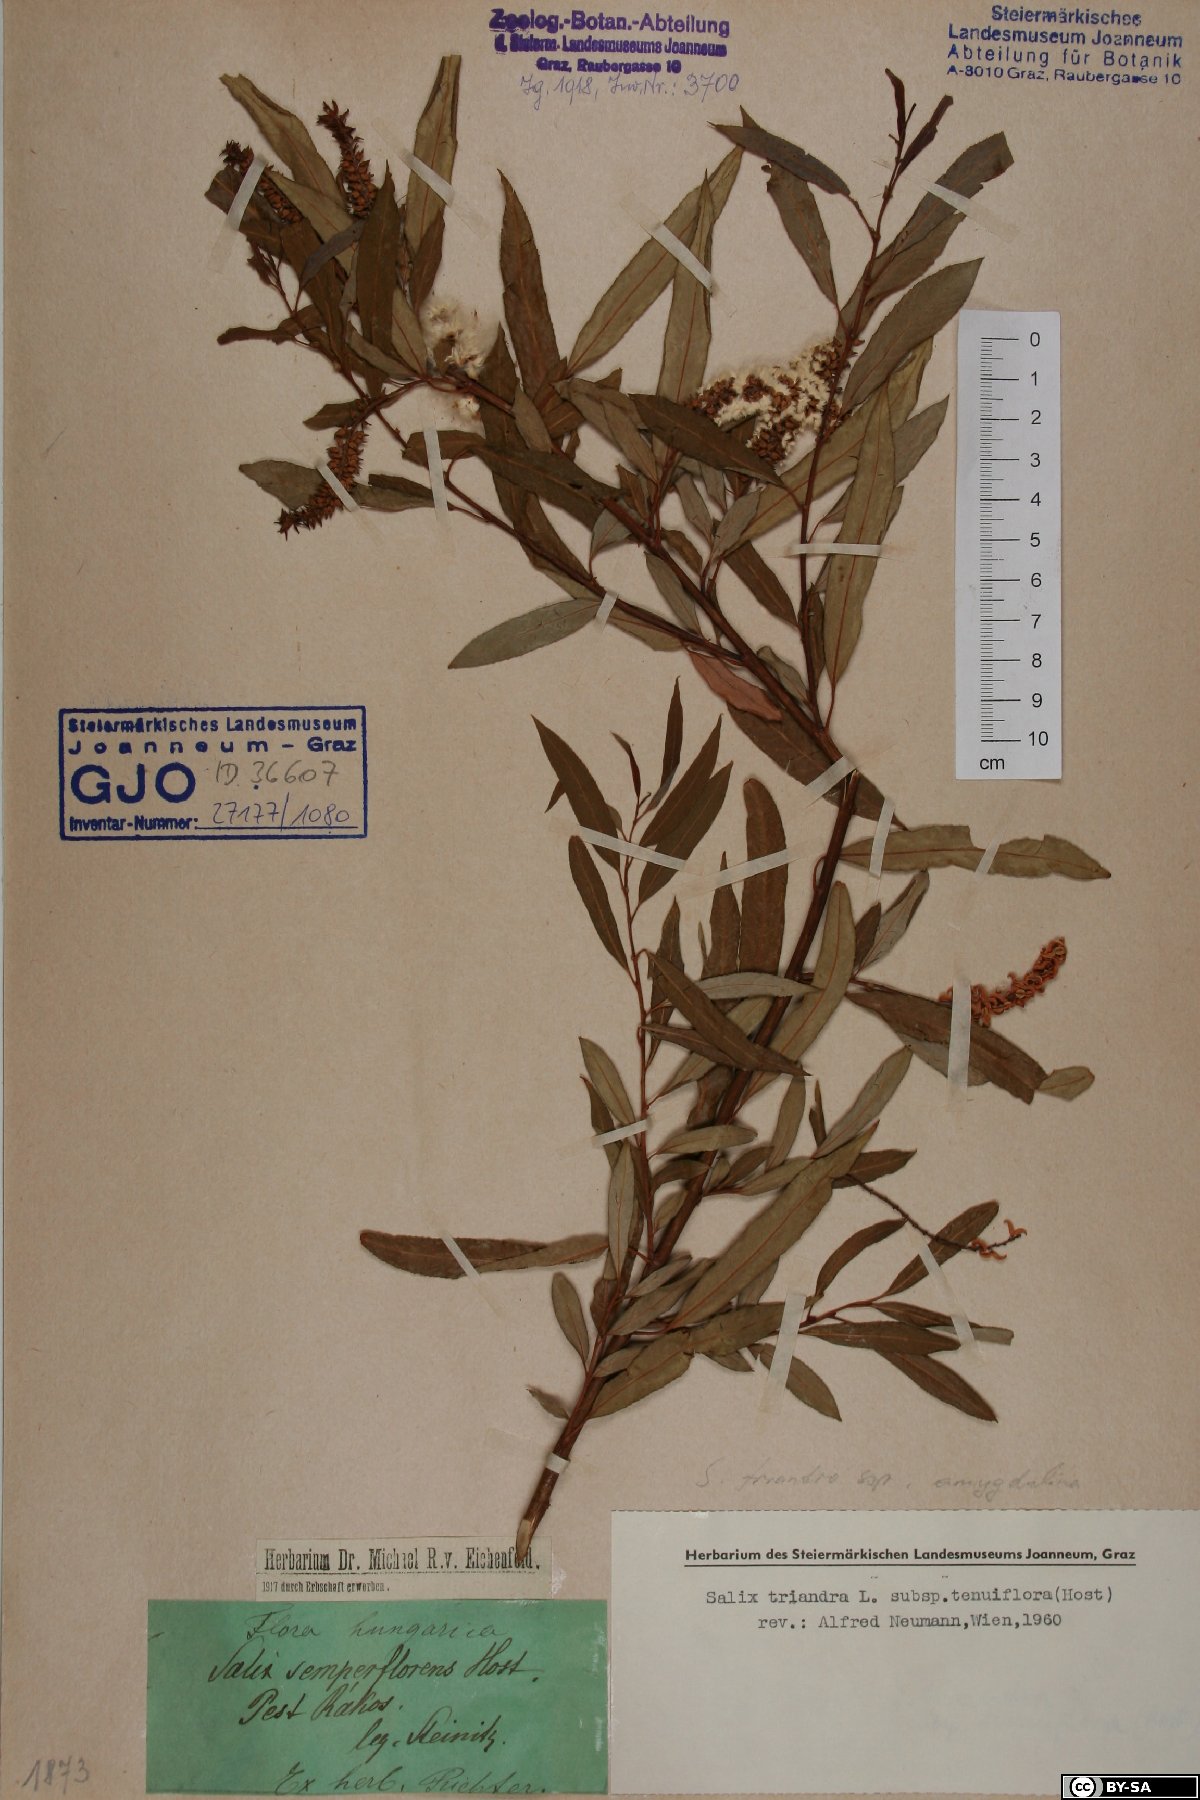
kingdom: Plantae
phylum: Tracheophyta
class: Magnoliopsida
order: Malpighiales
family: Salicaceae
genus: Salix
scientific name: Salix triandra
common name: Almond willow
